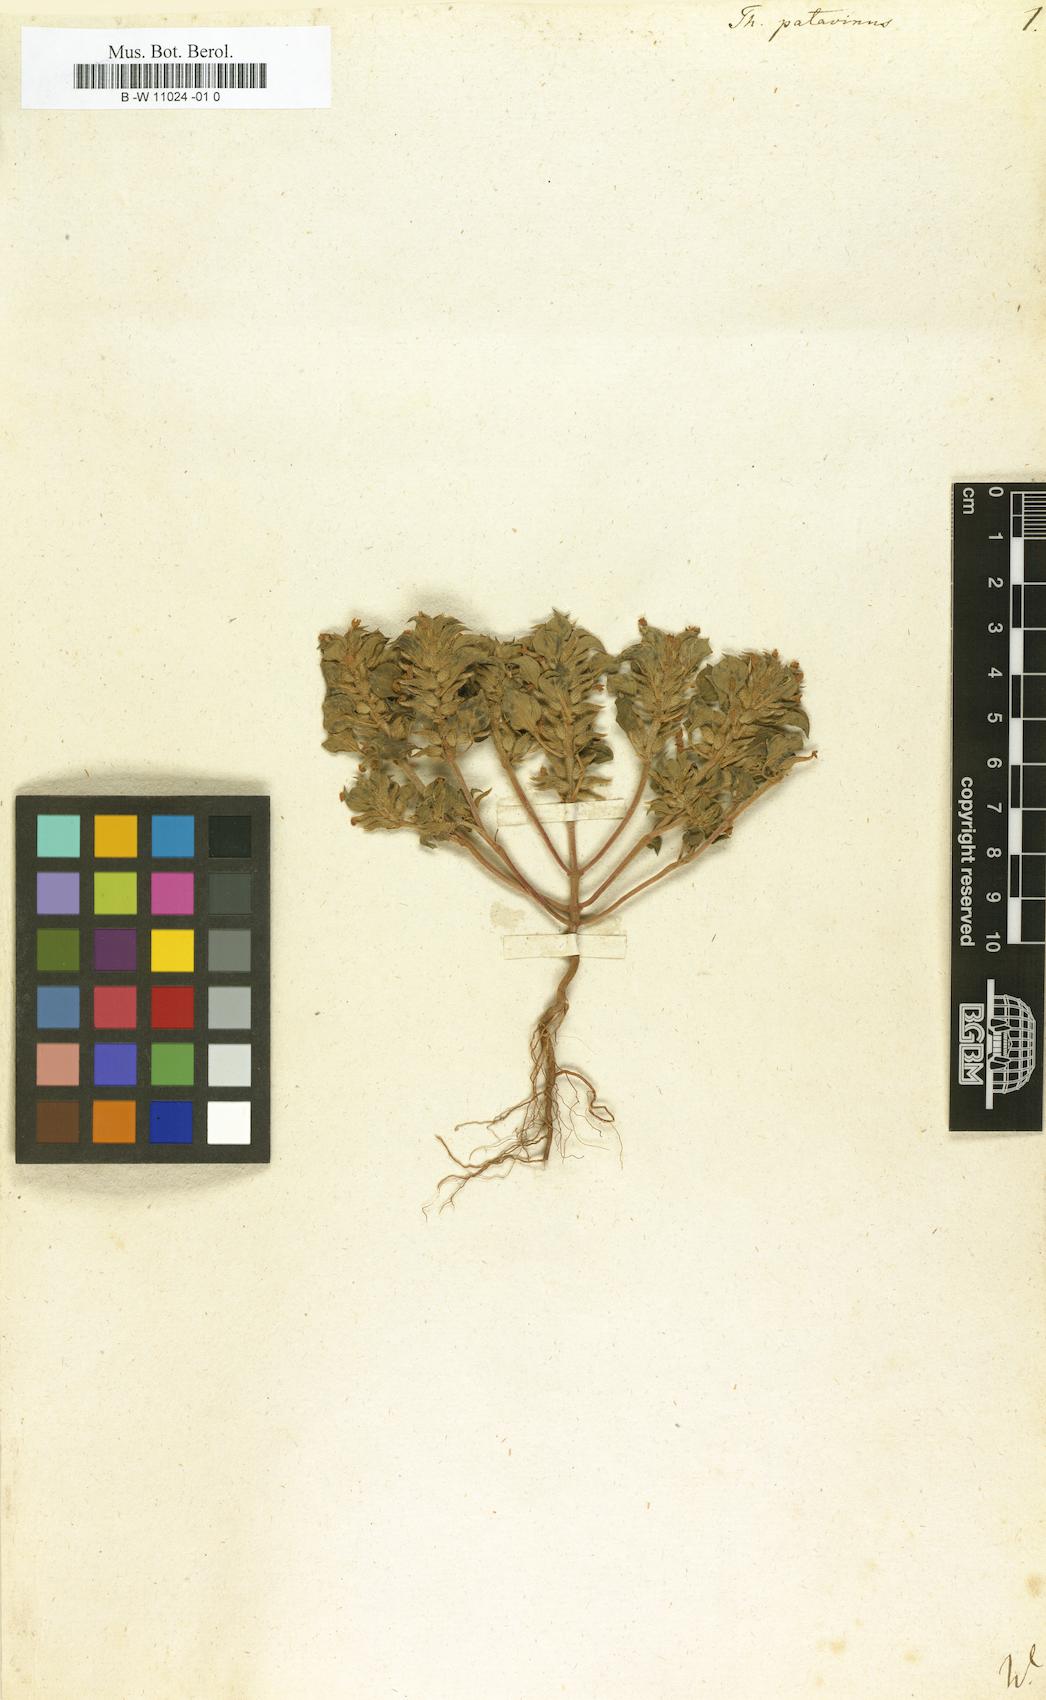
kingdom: Plantae
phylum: Tracheophyta
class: Magnoliopsida
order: Lamiales
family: Lamiaceae
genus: Clinopodium
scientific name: Clinopodium alpinum
